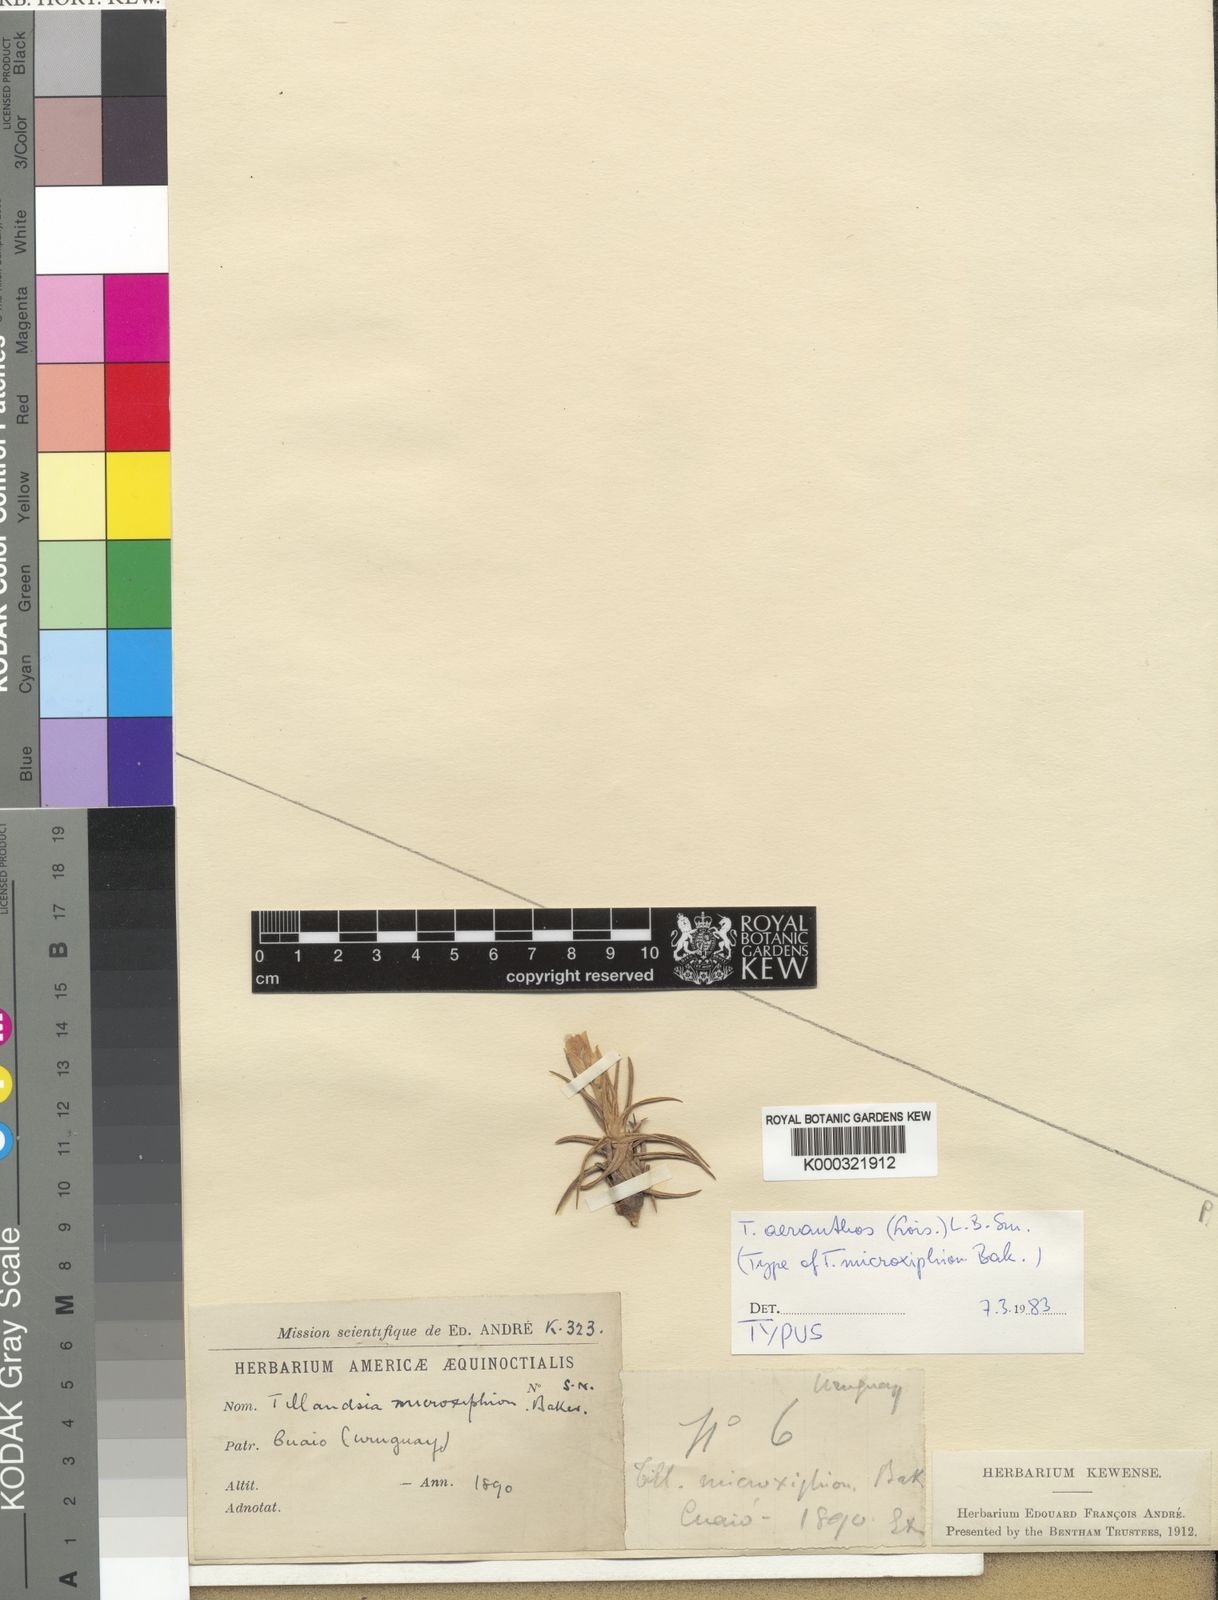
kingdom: Plantae
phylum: Tracheophyta
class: Liliopsida
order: Poales
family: Bromeliaceae
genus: Tillandsia
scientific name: Tillandsia
